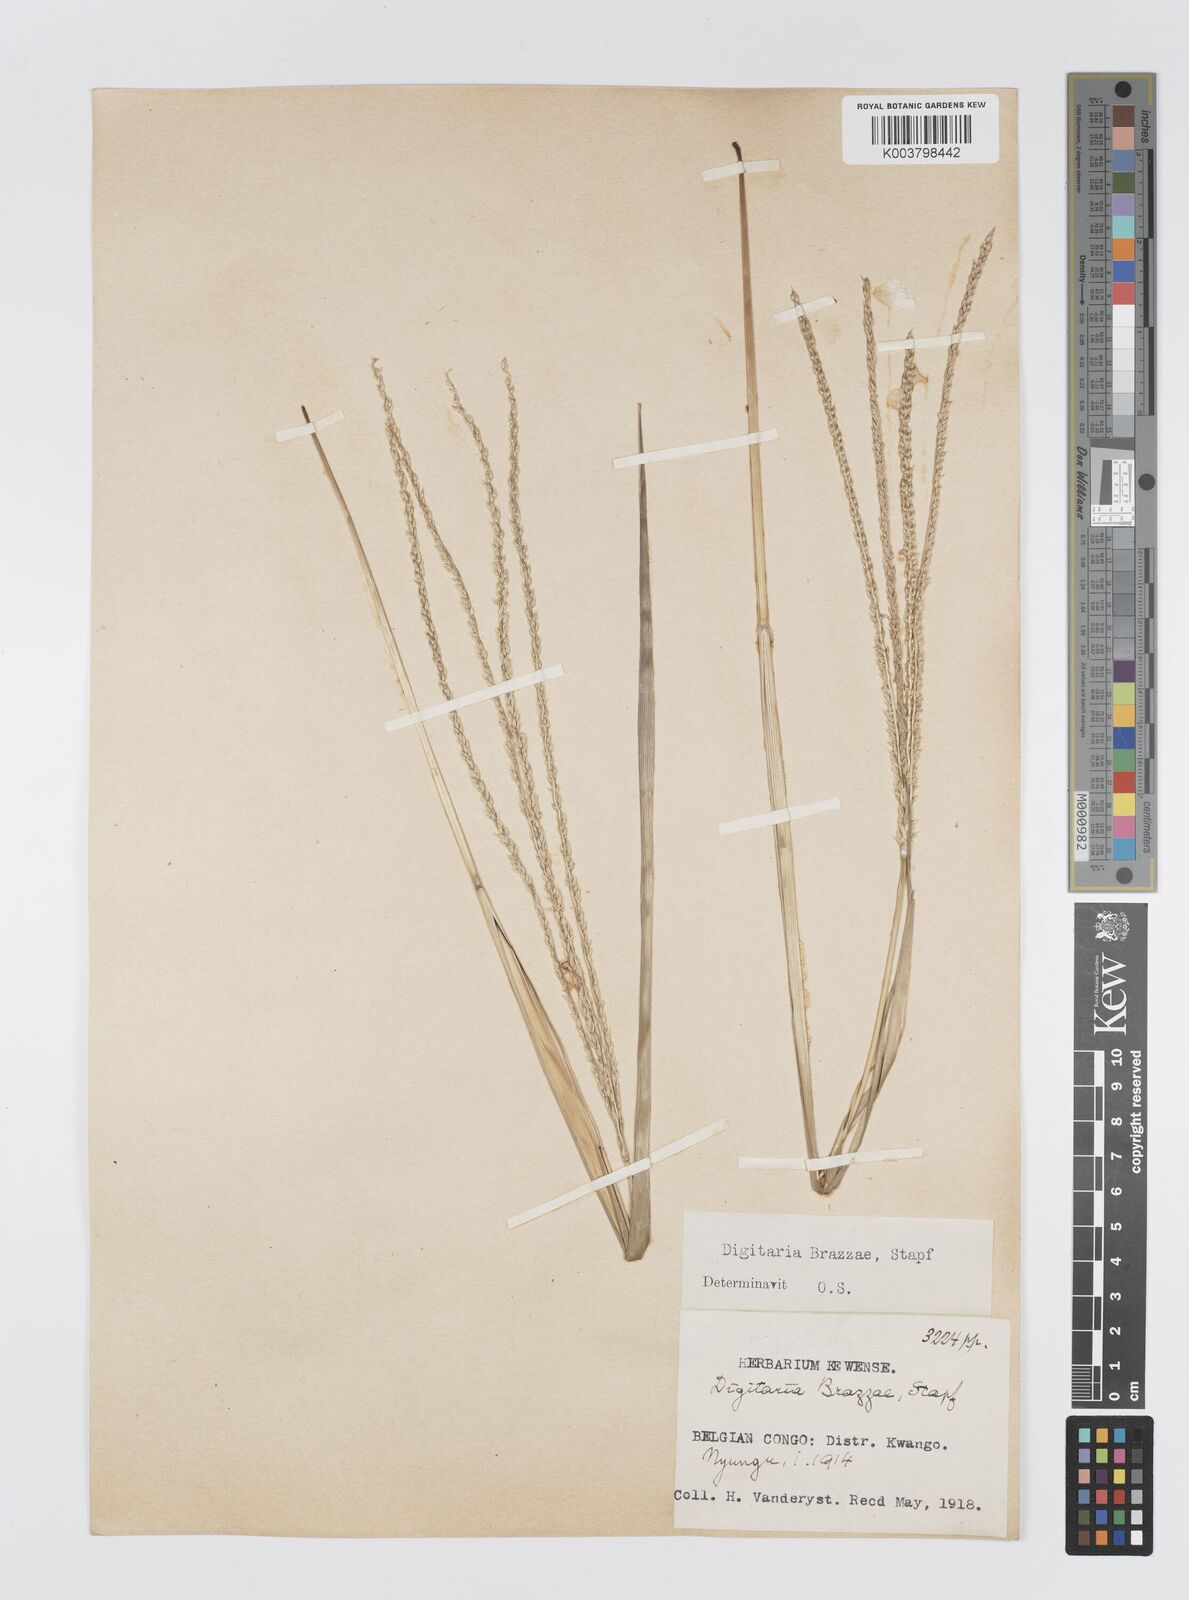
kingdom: Plantae
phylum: Tracheophyta
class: Liliopsida
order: Poales
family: Poaceae
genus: Digitaria
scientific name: Digitaria brazzae
